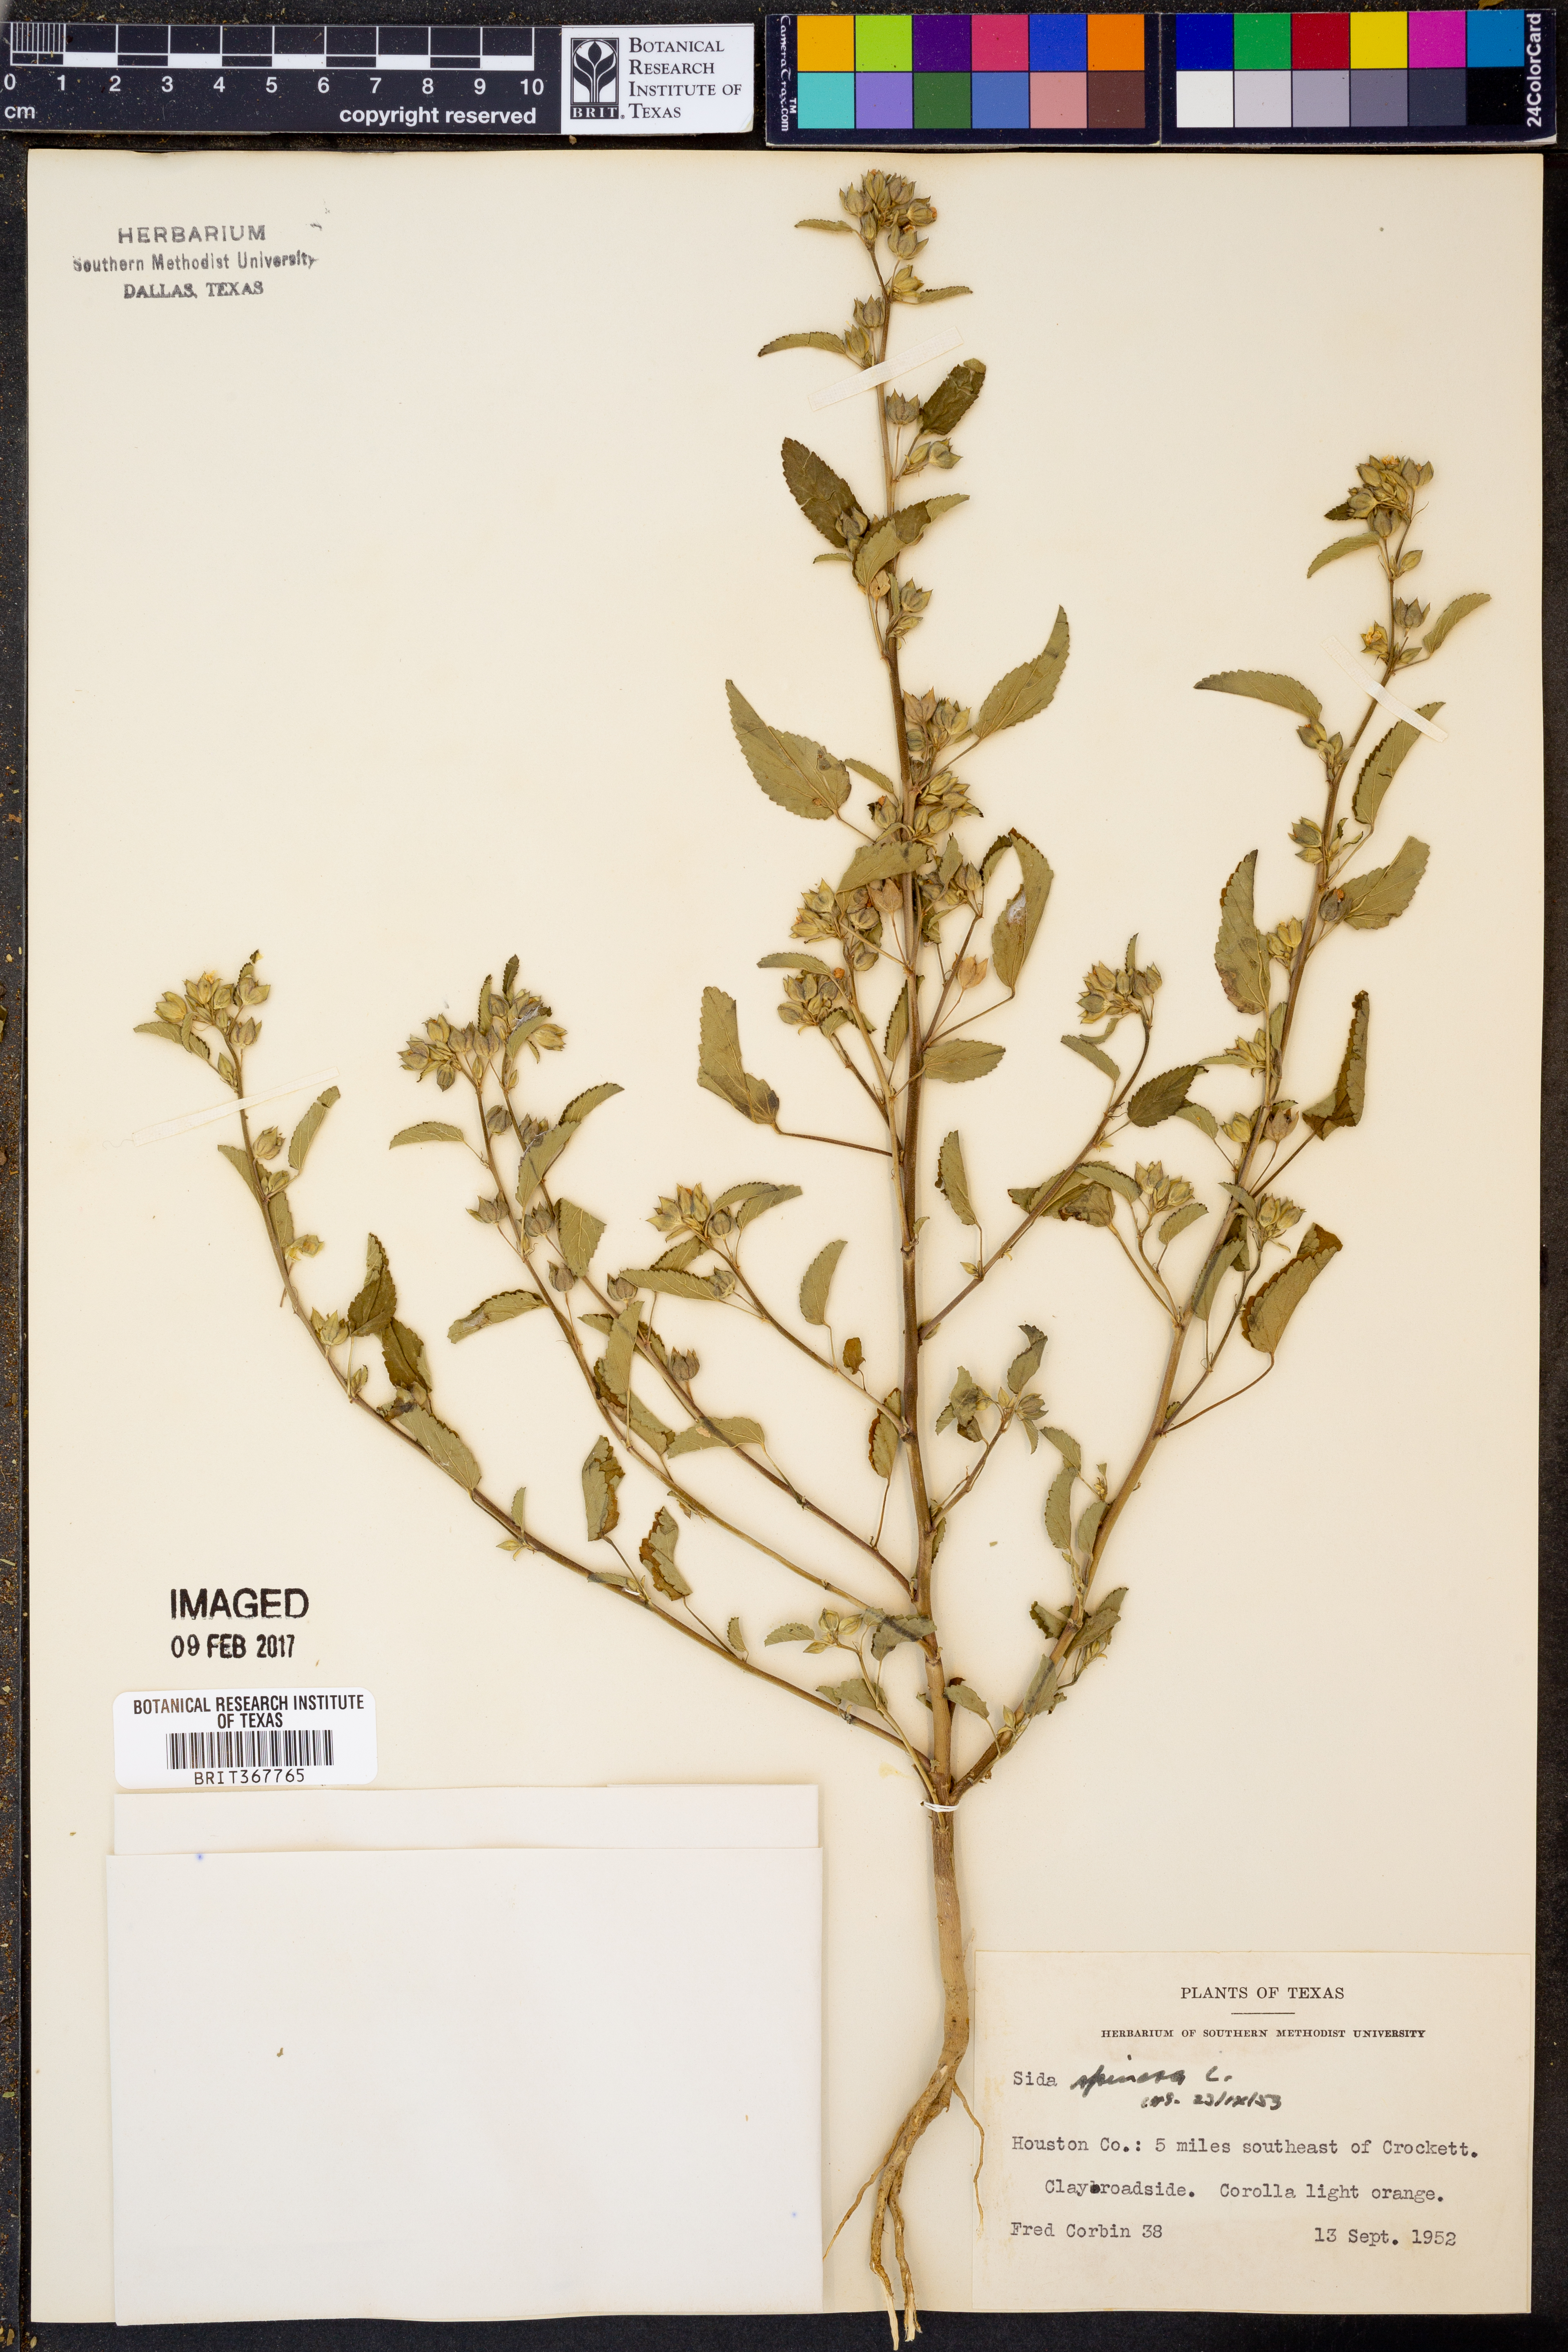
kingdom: Plantae
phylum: Tracheophyta
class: Magnoliopsida
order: Malvales
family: Malvaceae
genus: Sida
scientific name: Sida spinosa
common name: Prickly fanpetals
